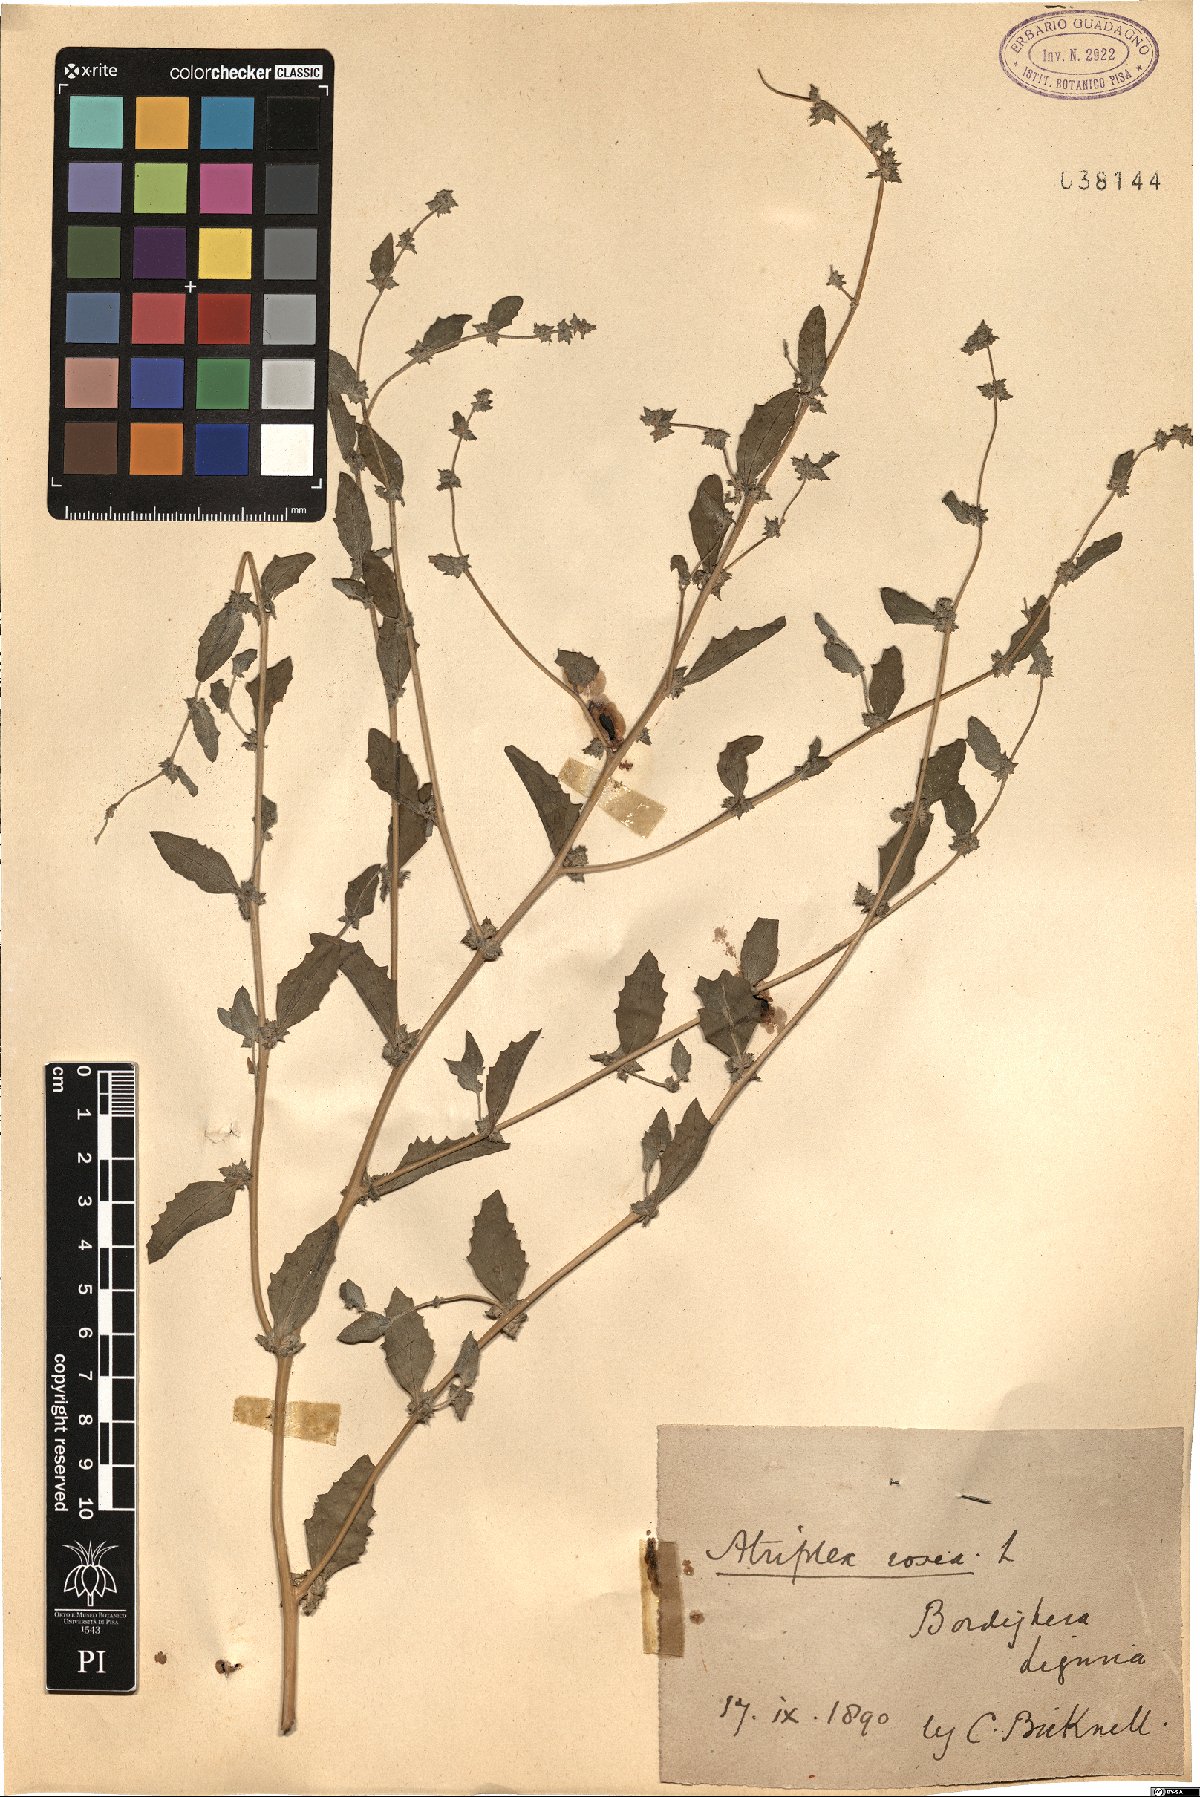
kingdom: Plantae
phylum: Tracheophyta
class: Magnoliopsida
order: Caryophyllales
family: Amaranthaceae
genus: Atriplex
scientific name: Atriplex rosea
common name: Tumbling saltweed
